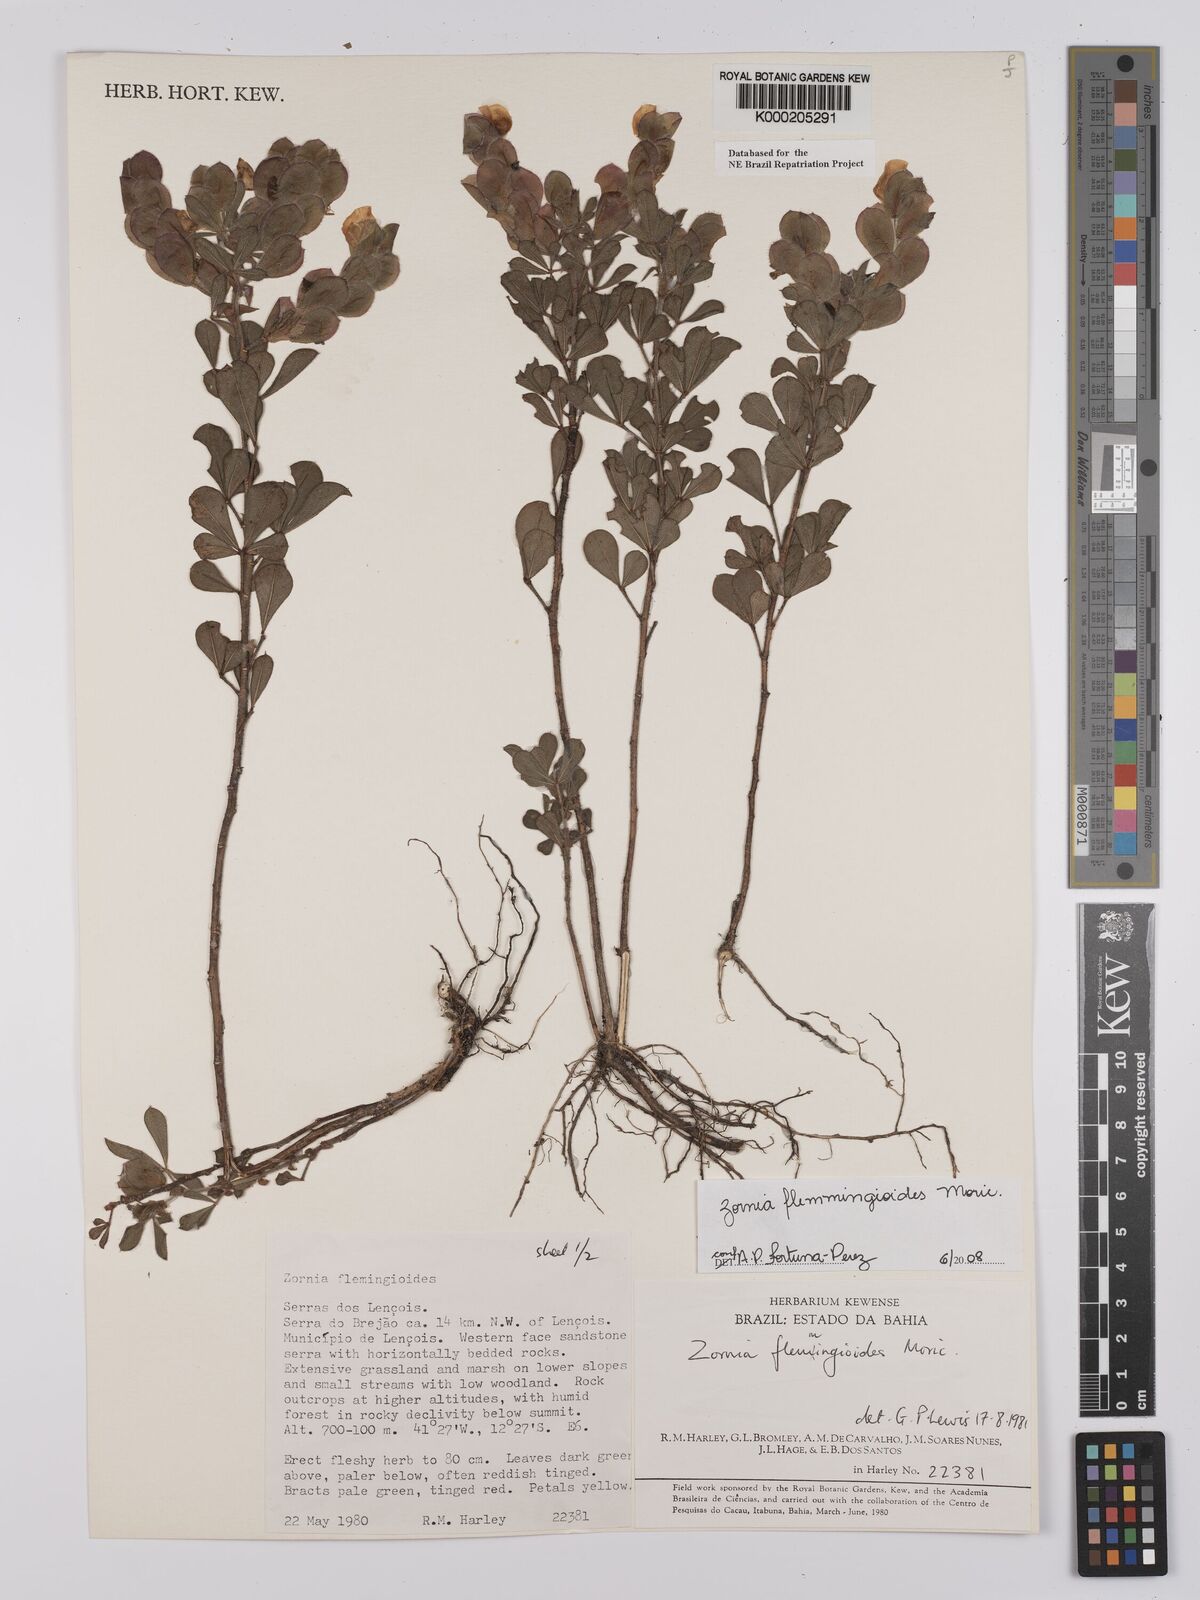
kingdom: Plantae
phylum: Tracheophyta
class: Magnoliopsida
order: Fabales
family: Fabaceae
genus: Zornia
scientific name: Zornia flemmingioides
